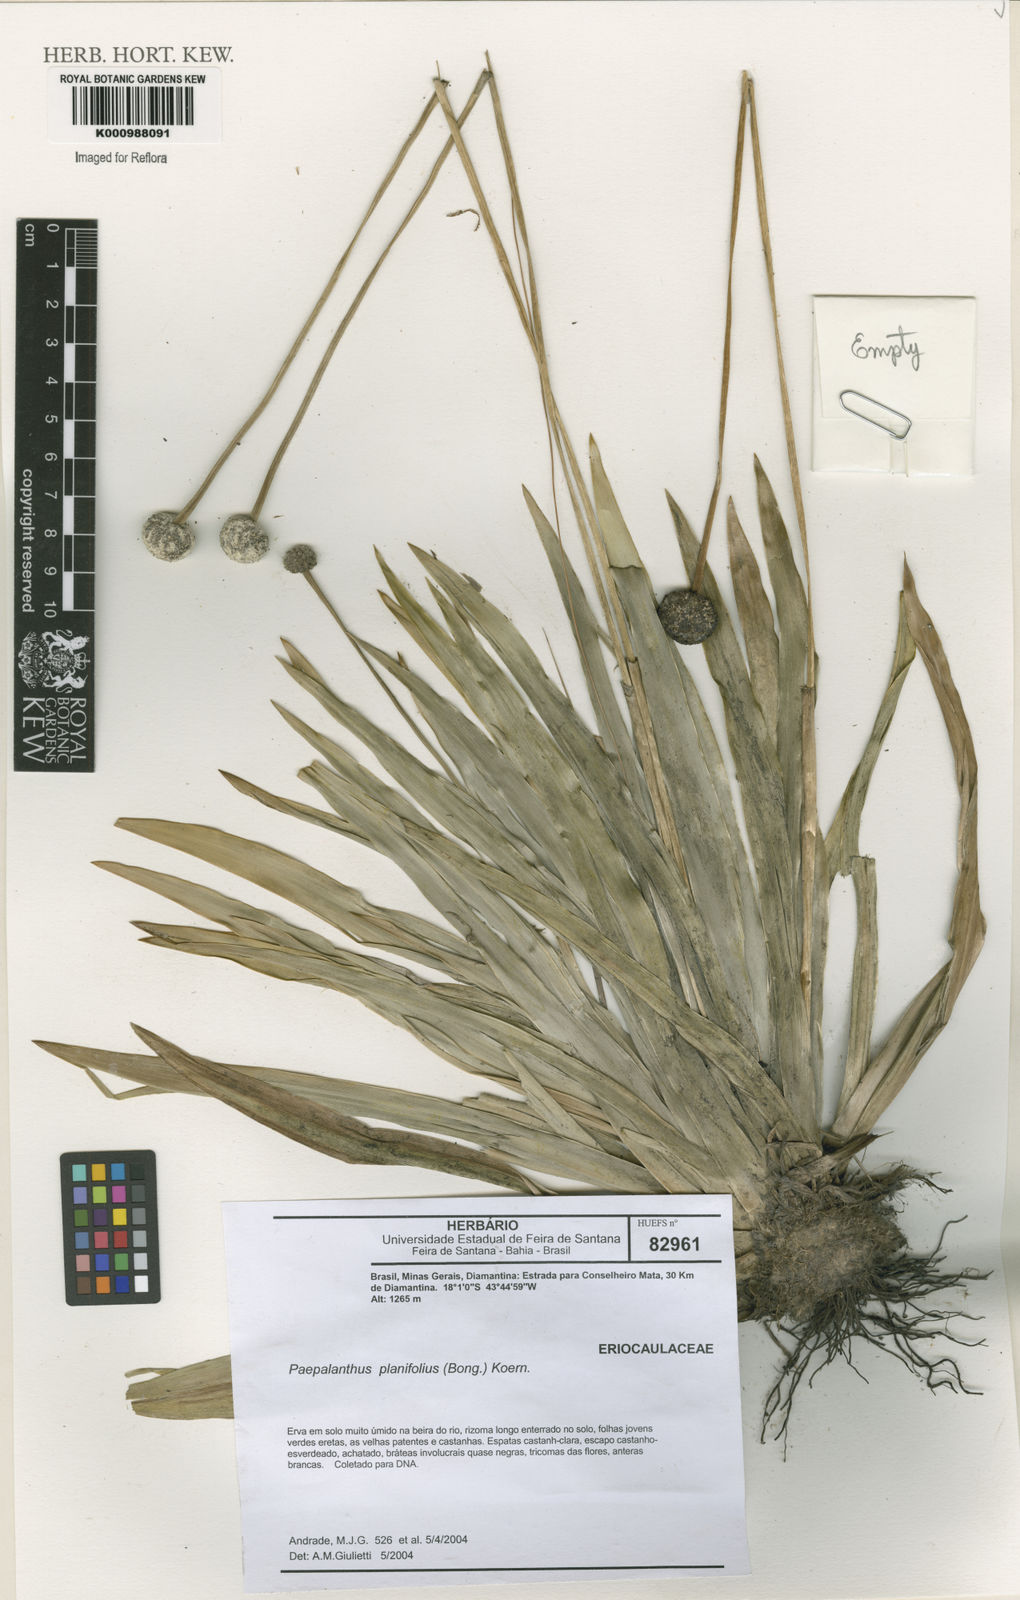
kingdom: Plantae
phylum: Tracheophyta
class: Liliopsida
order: Poales
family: Eriocaulaceae
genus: Paepalanthus
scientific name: Paepalanthus
